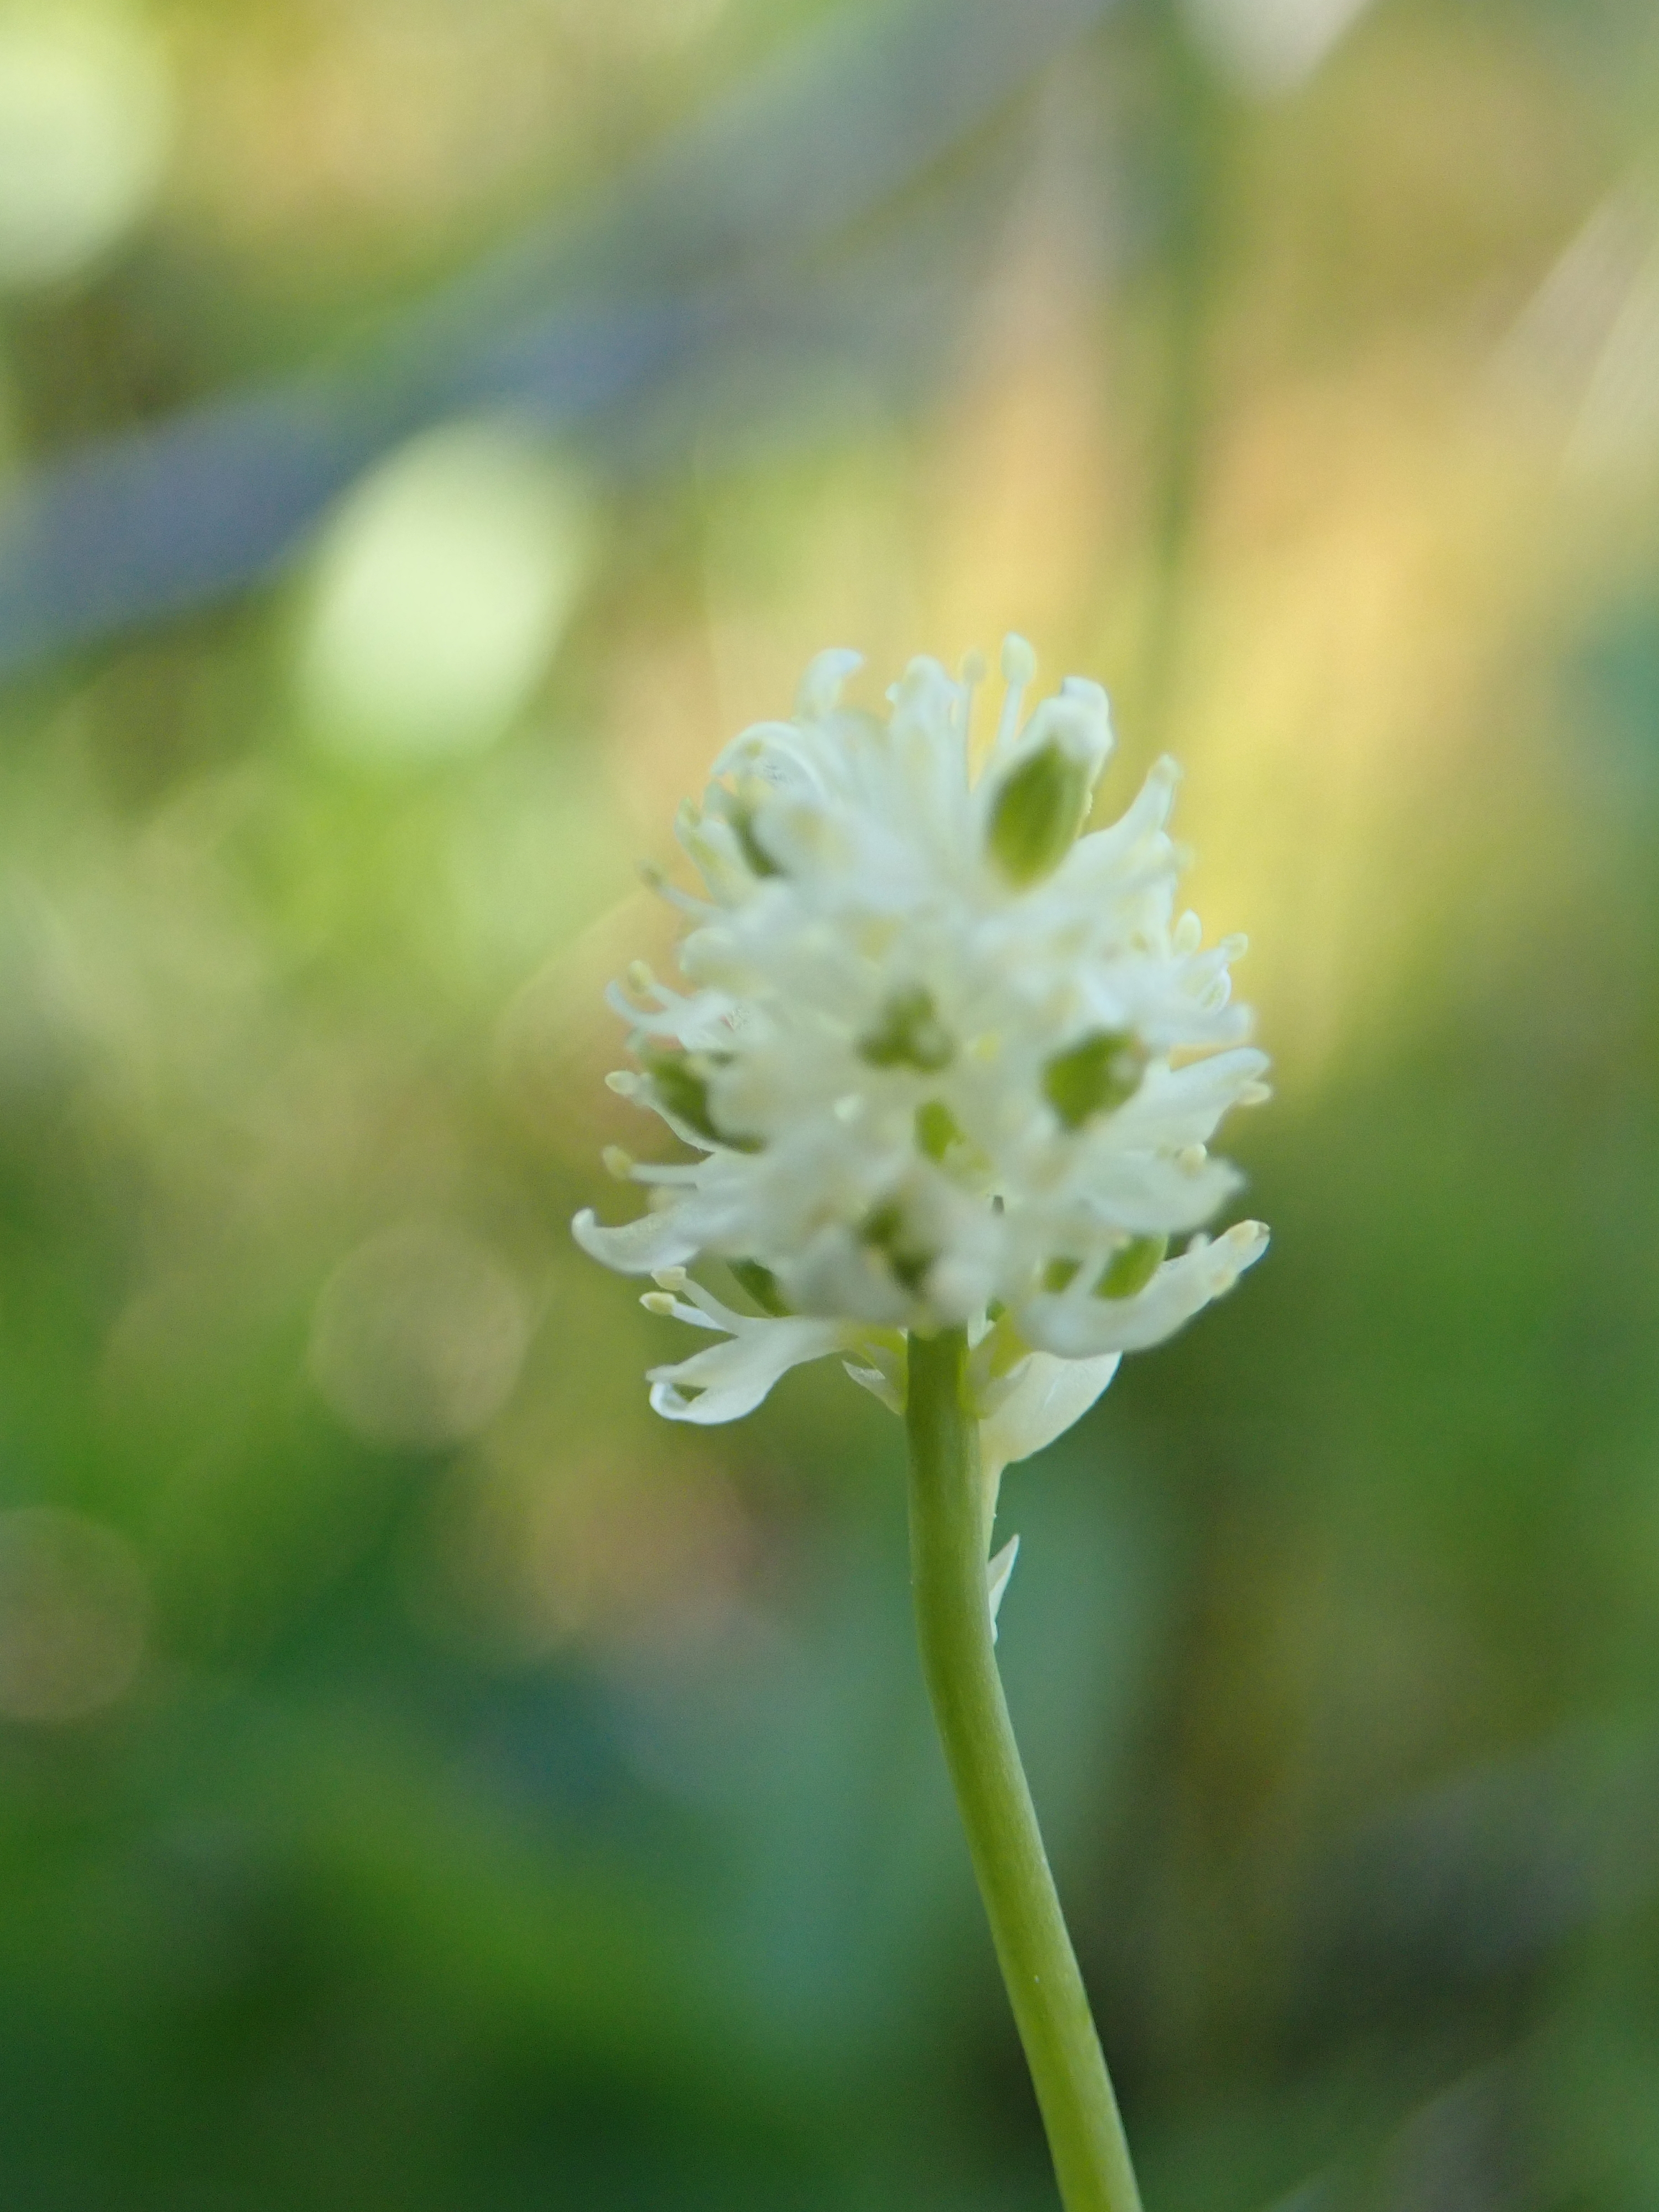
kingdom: Plantae
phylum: Tracheophyta
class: Liliopsida
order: Alismatales
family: Tofieldiaceae
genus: Tofieldia
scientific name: Tofieldia pusilla
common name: Scottish false asphodel
